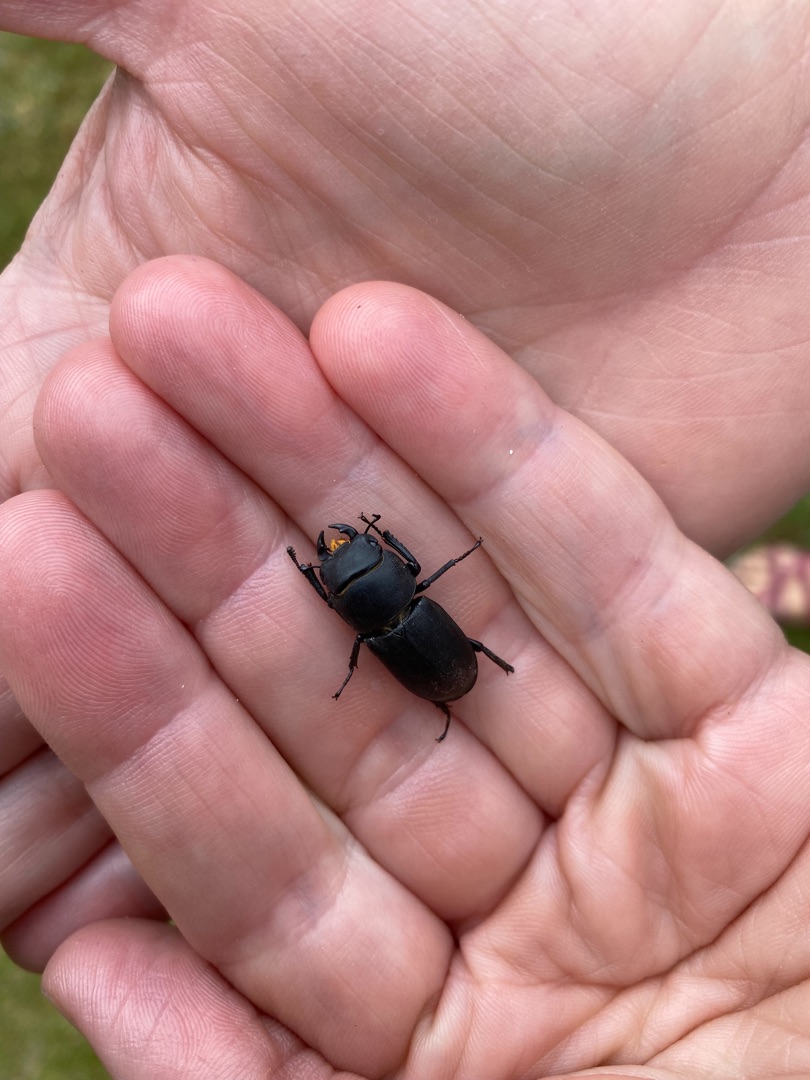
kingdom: Animalia
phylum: Arthropoda
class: Insecta
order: Coleoptera
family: Lucanidae
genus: Dorcus
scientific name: Dorcus parallelipipedus
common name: Bøghjort
